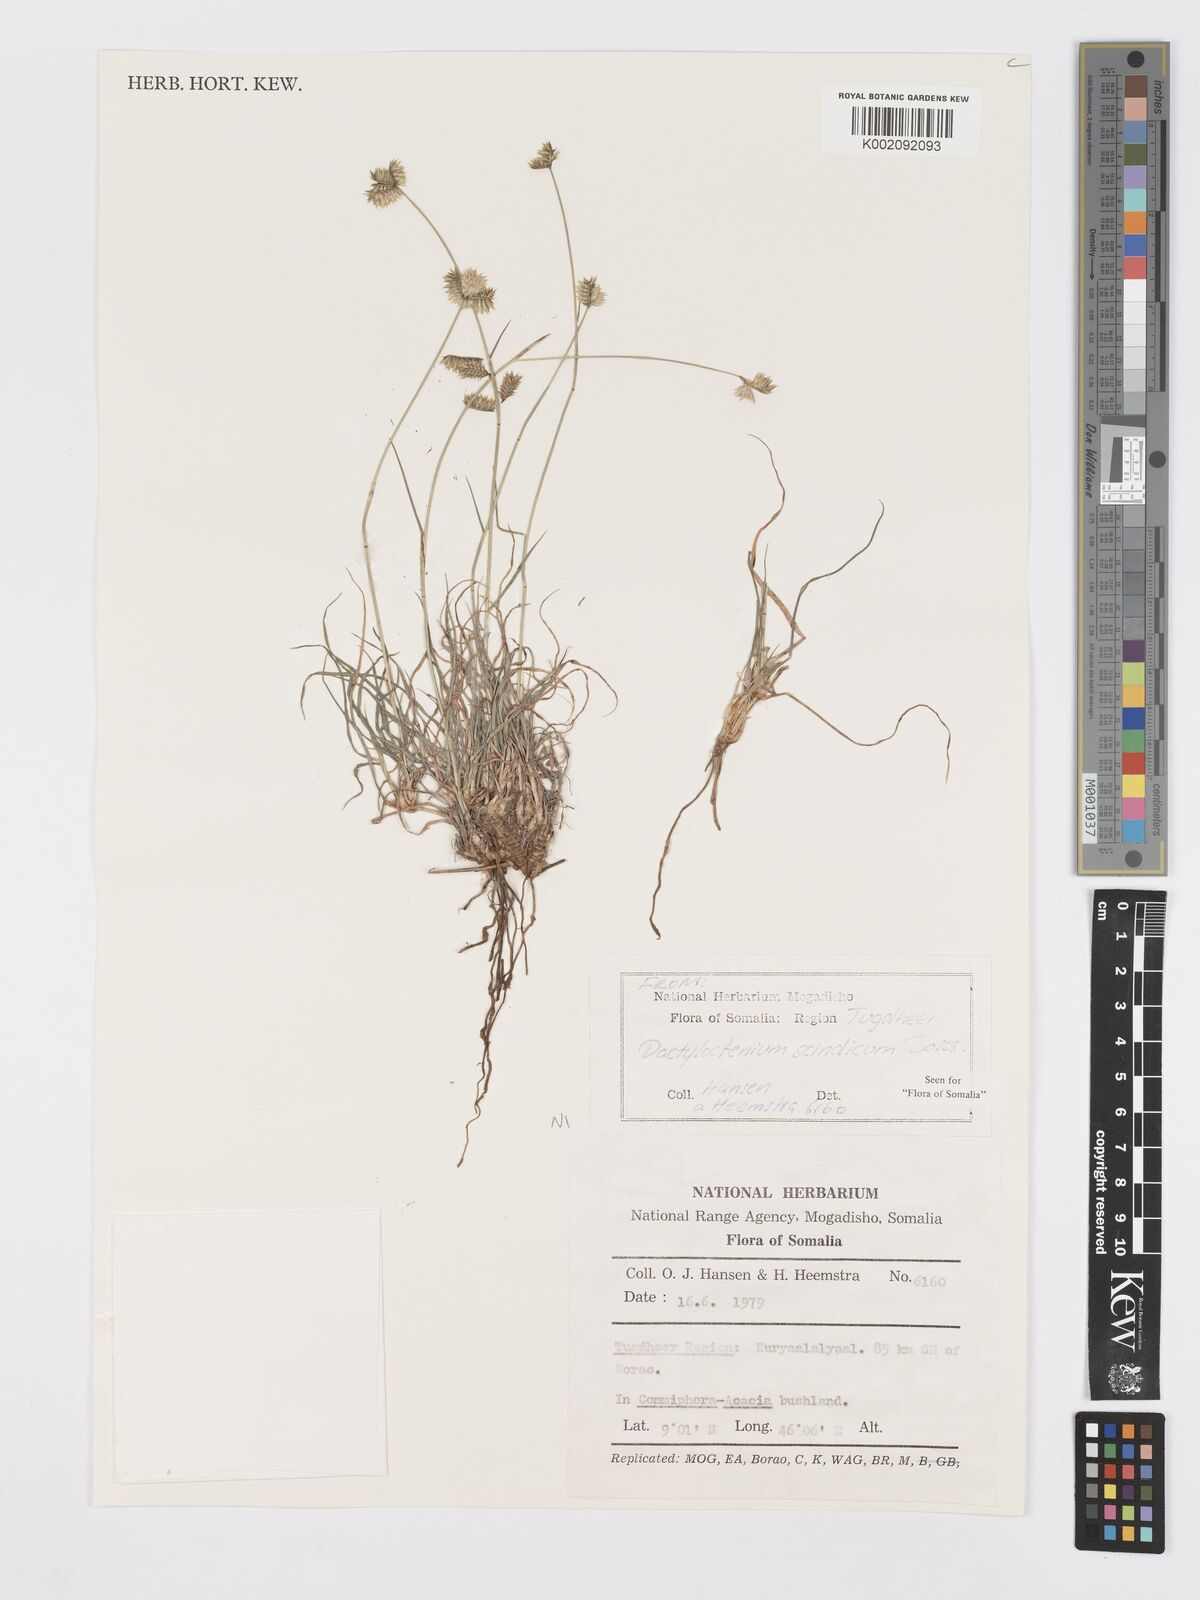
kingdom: Plantae
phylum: Tracheophyta
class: Liliopsida
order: Poales
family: Poaceae
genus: Dactyloctenium
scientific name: Dactyloctenium scindicum
